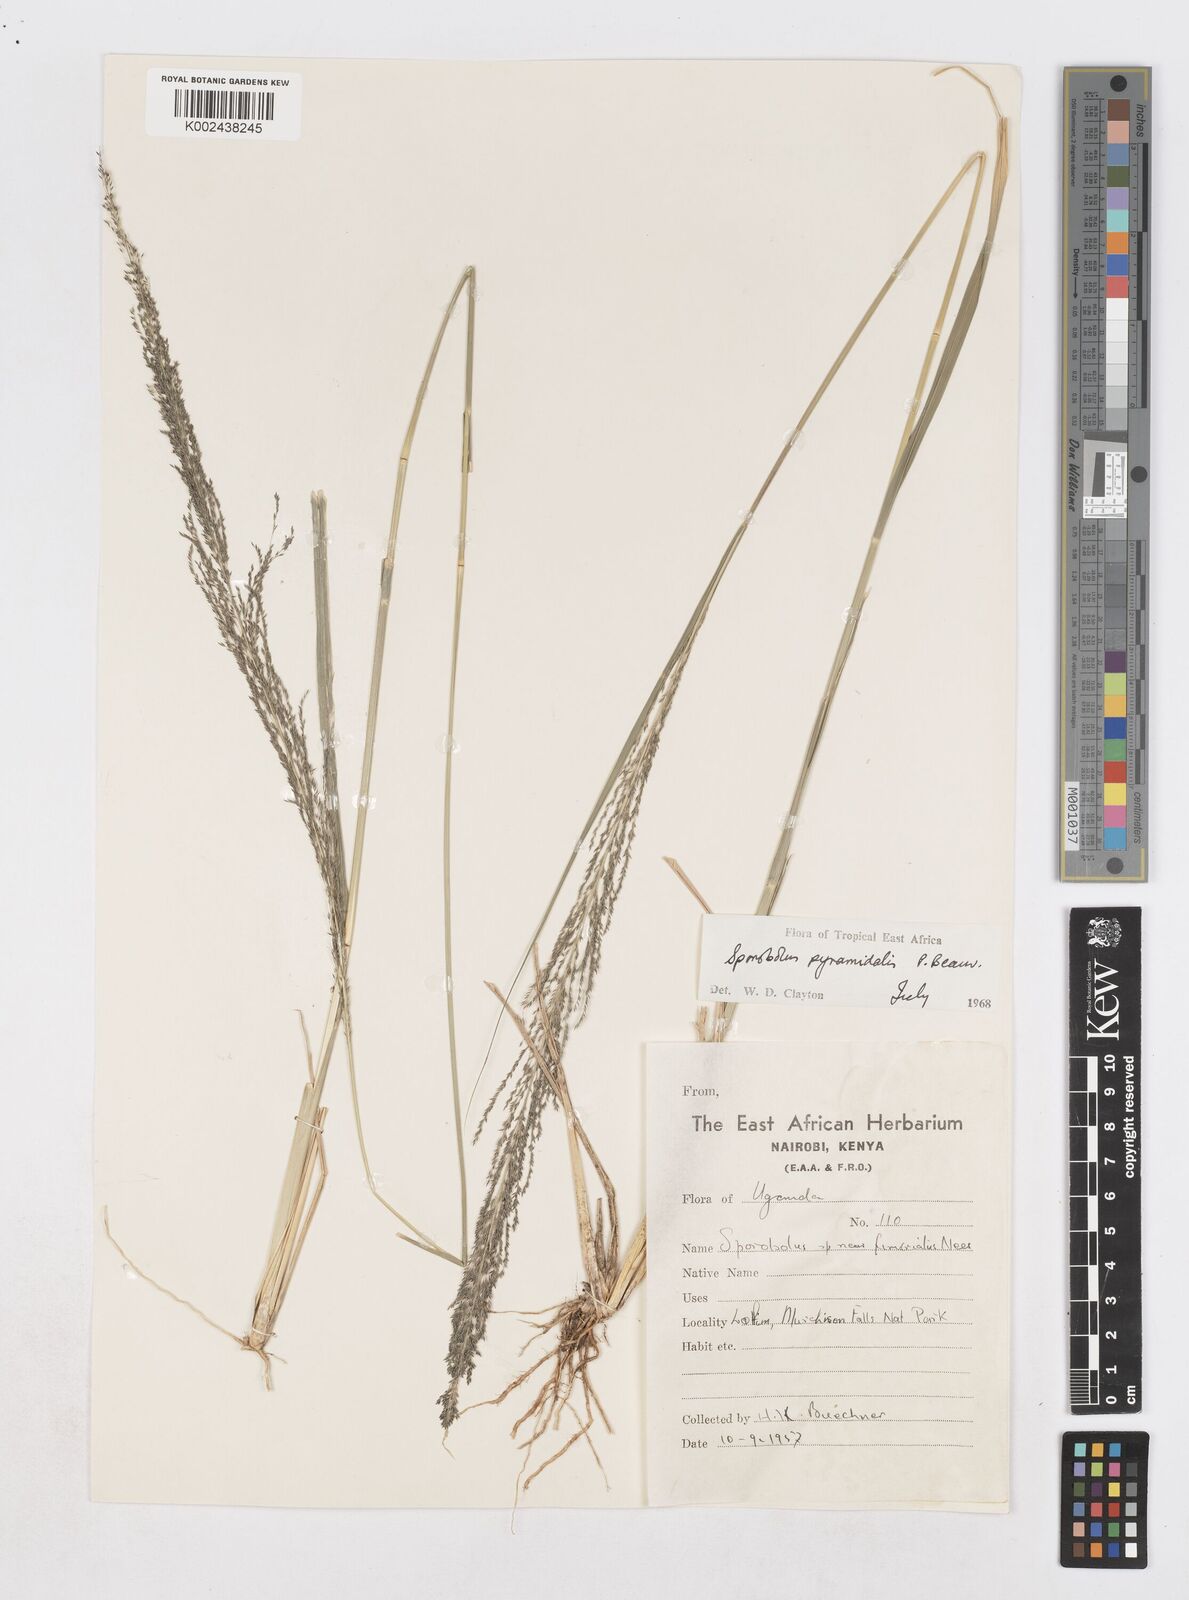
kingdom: Plantae
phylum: Tracheophyta
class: Liliopsida
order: Poales
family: Poaceae
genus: Sporobolus
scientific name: Sporobolus pyramidalis
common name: West indian dropseed
